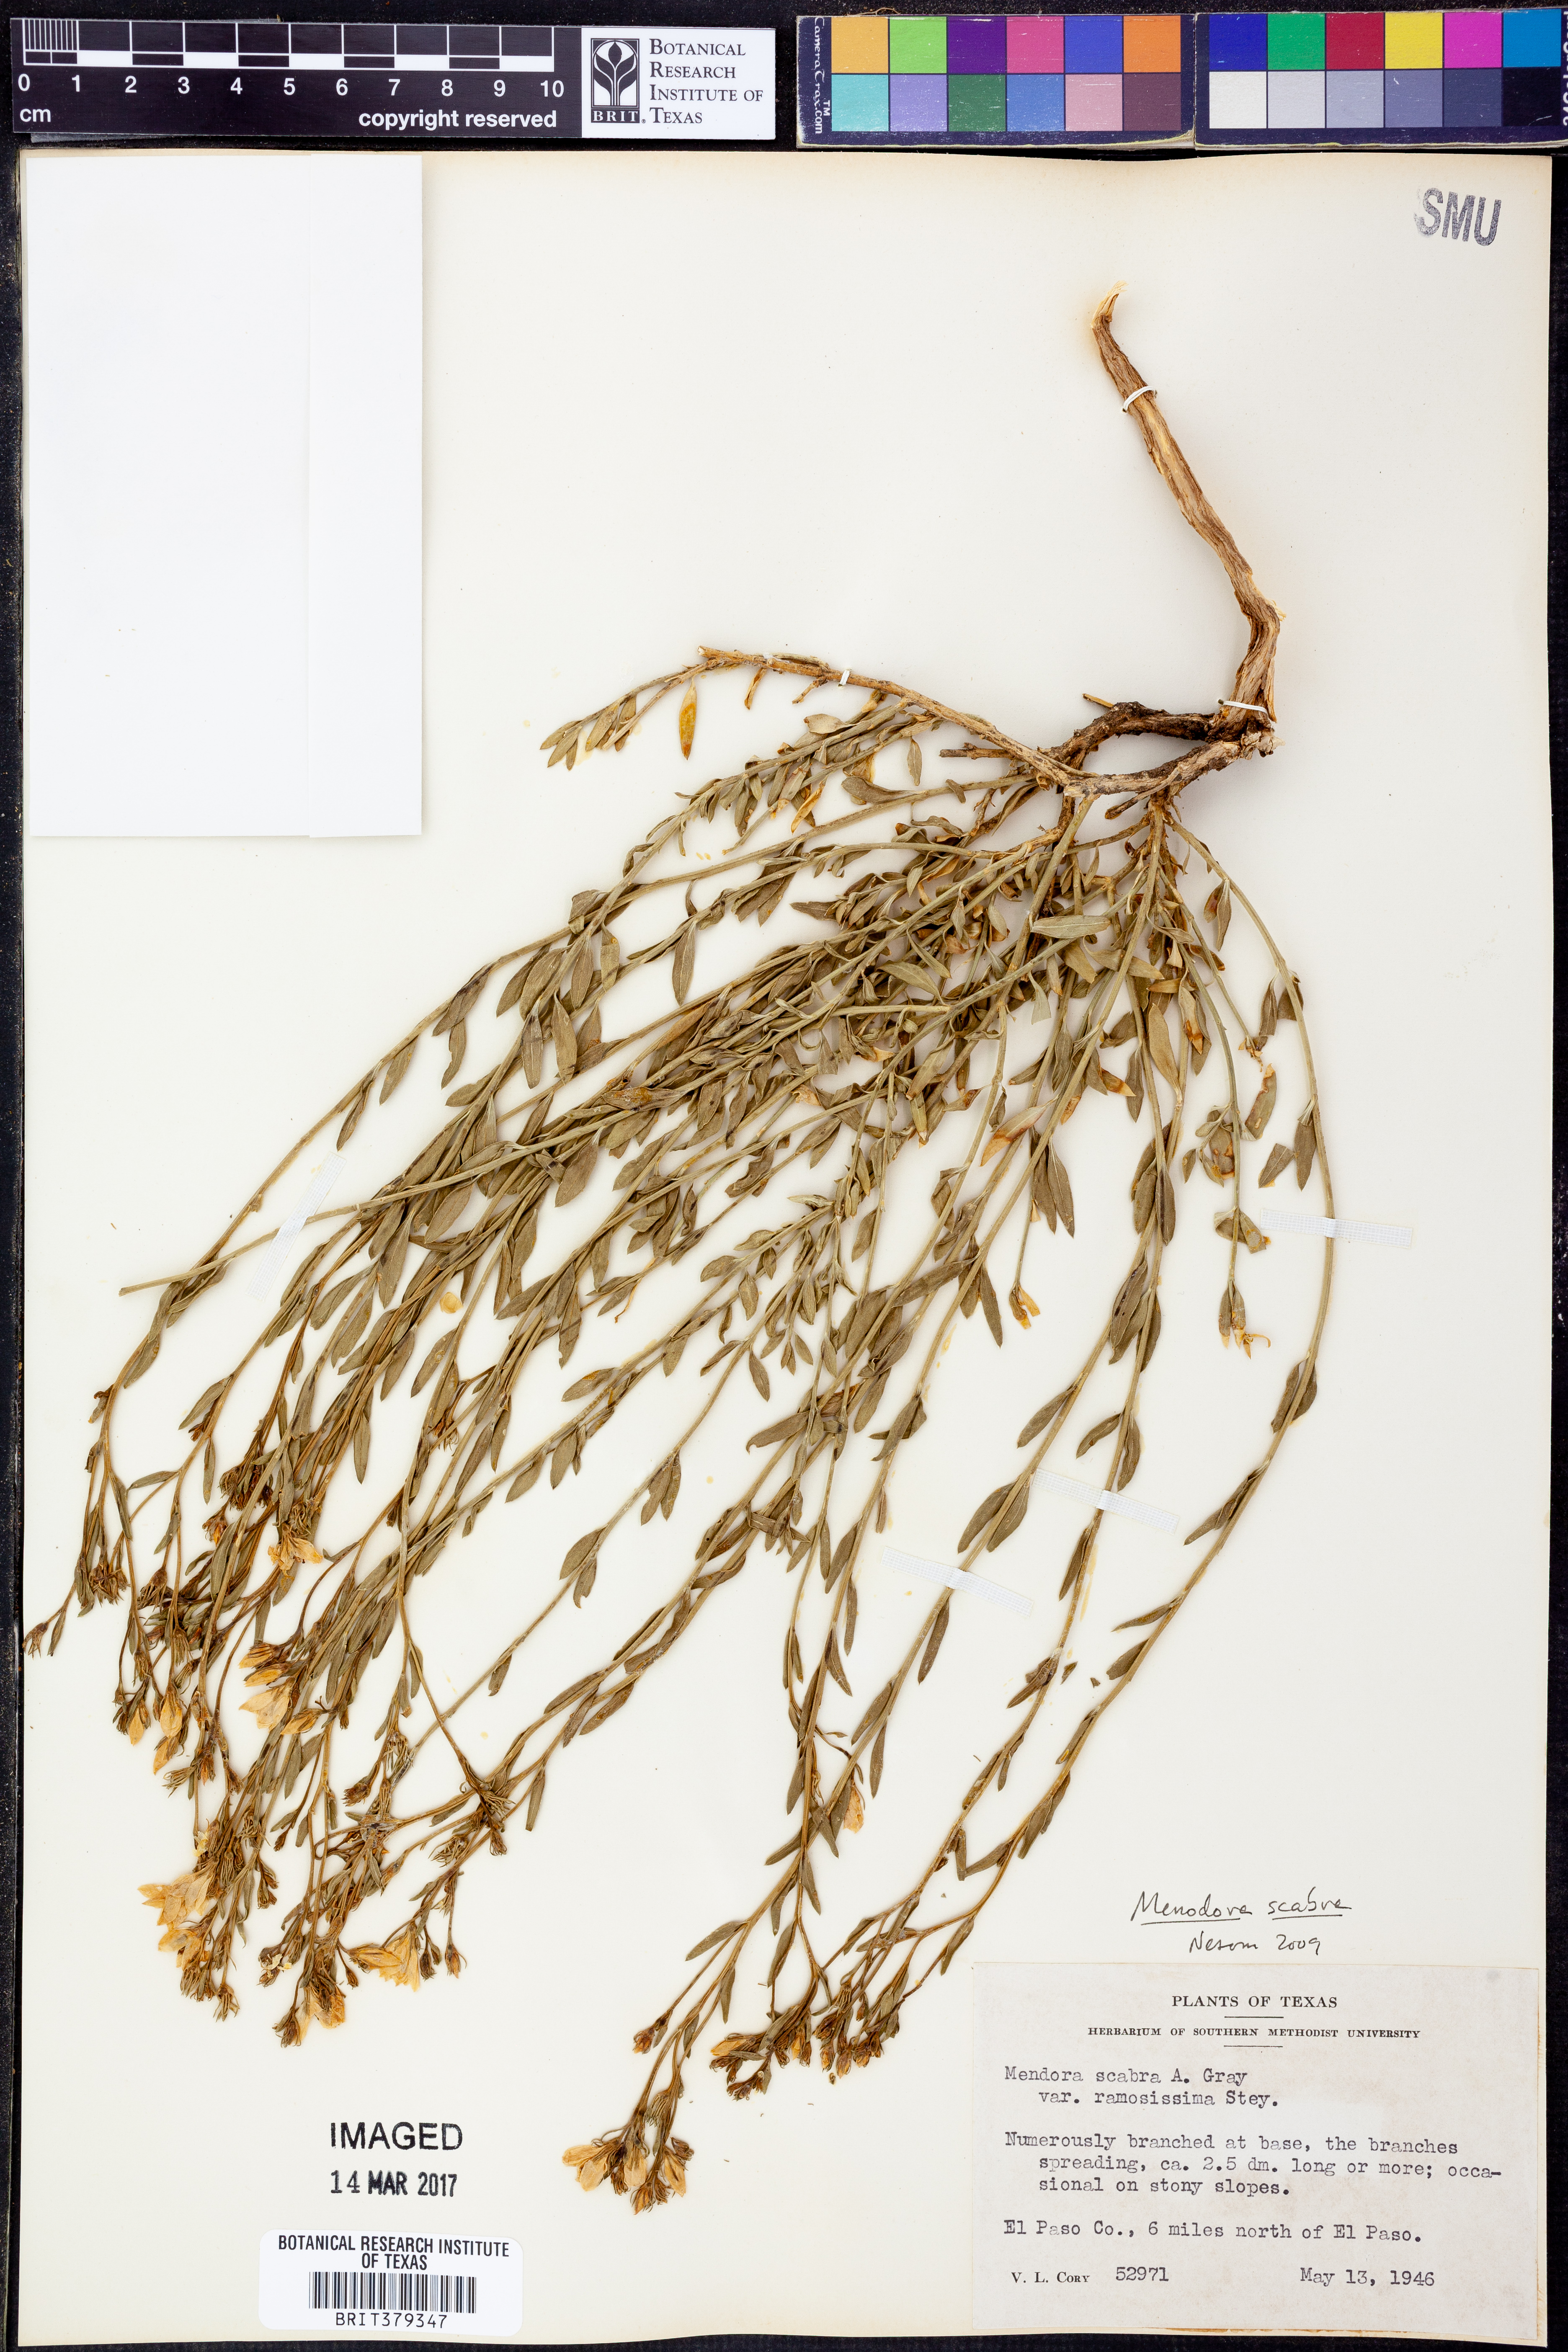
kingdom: Plantae
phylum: Tracheophyta
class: Magnoliopsida
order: Lamiales
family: Oleaceae
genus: Menodora
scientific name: Menodora scabra
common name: Rough menodora
